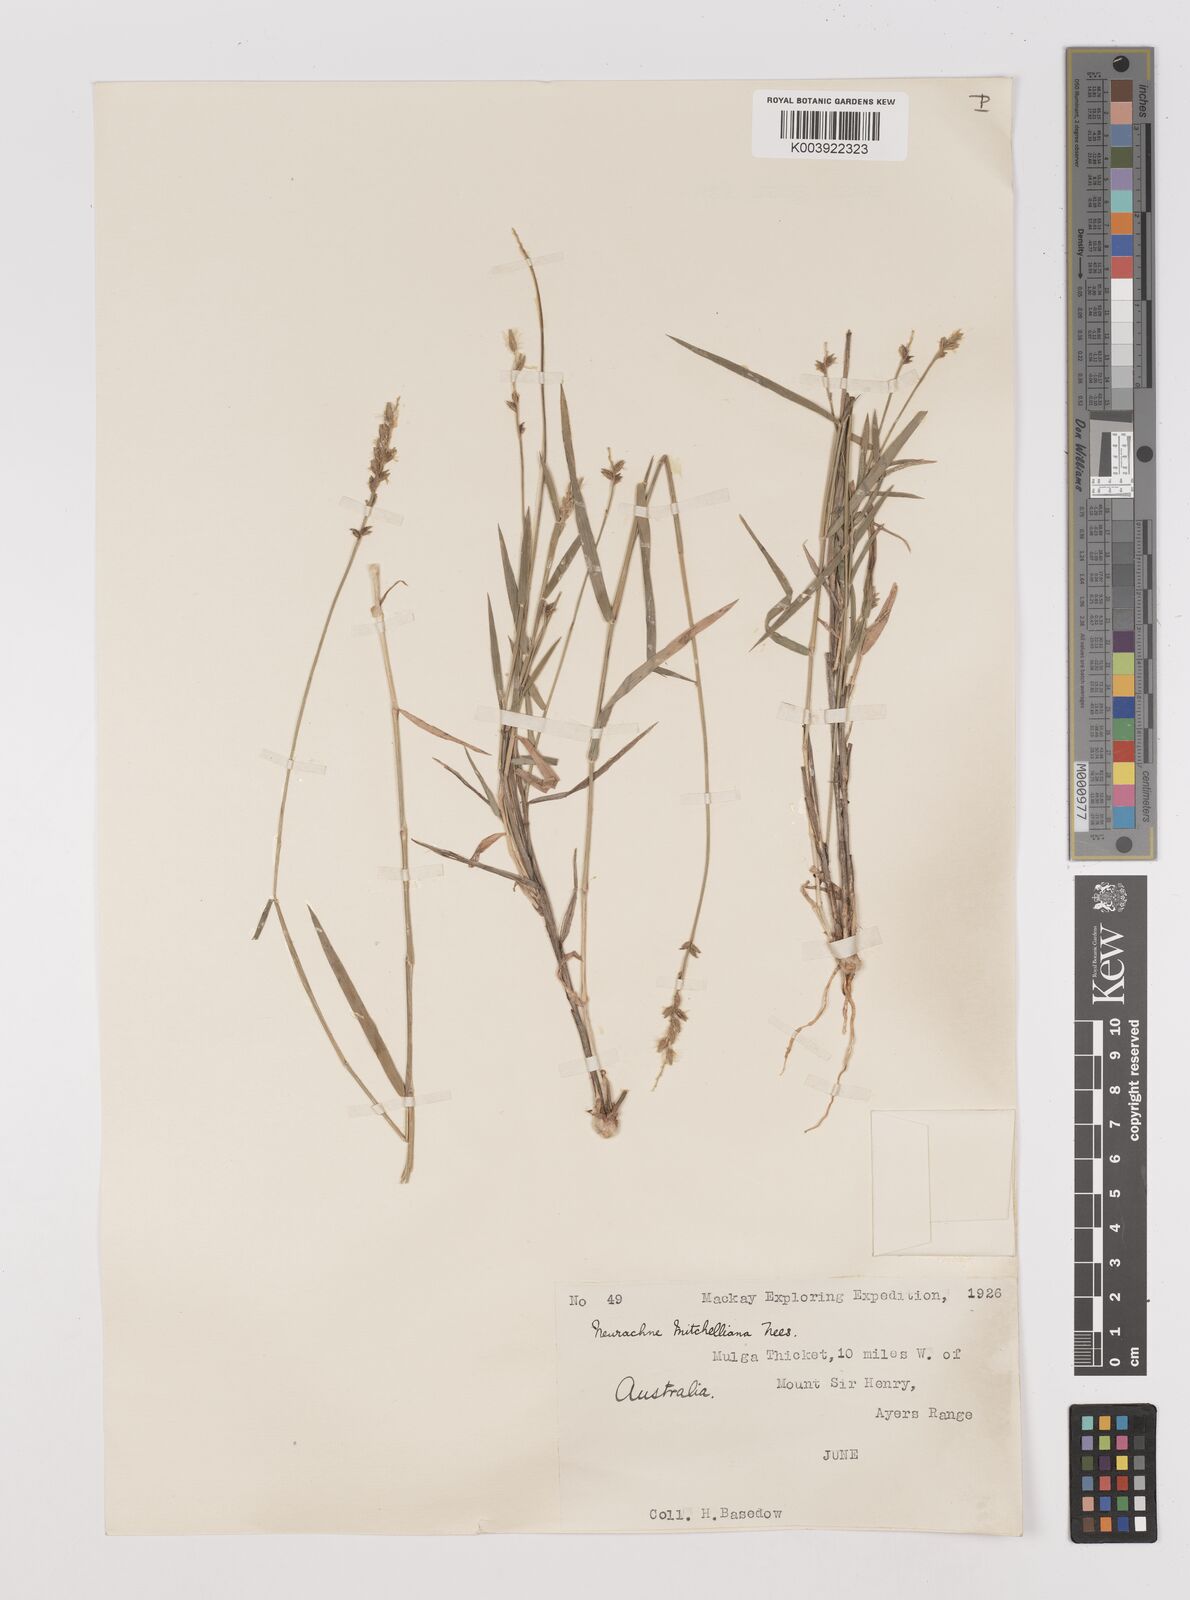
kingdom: Plantae
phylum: Tracheophyta
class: Liliopsida
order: Poales
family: Poaceae
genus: Thyridolepis
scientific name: Thyridolepis mitchelliana
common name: Rock tassel grass
